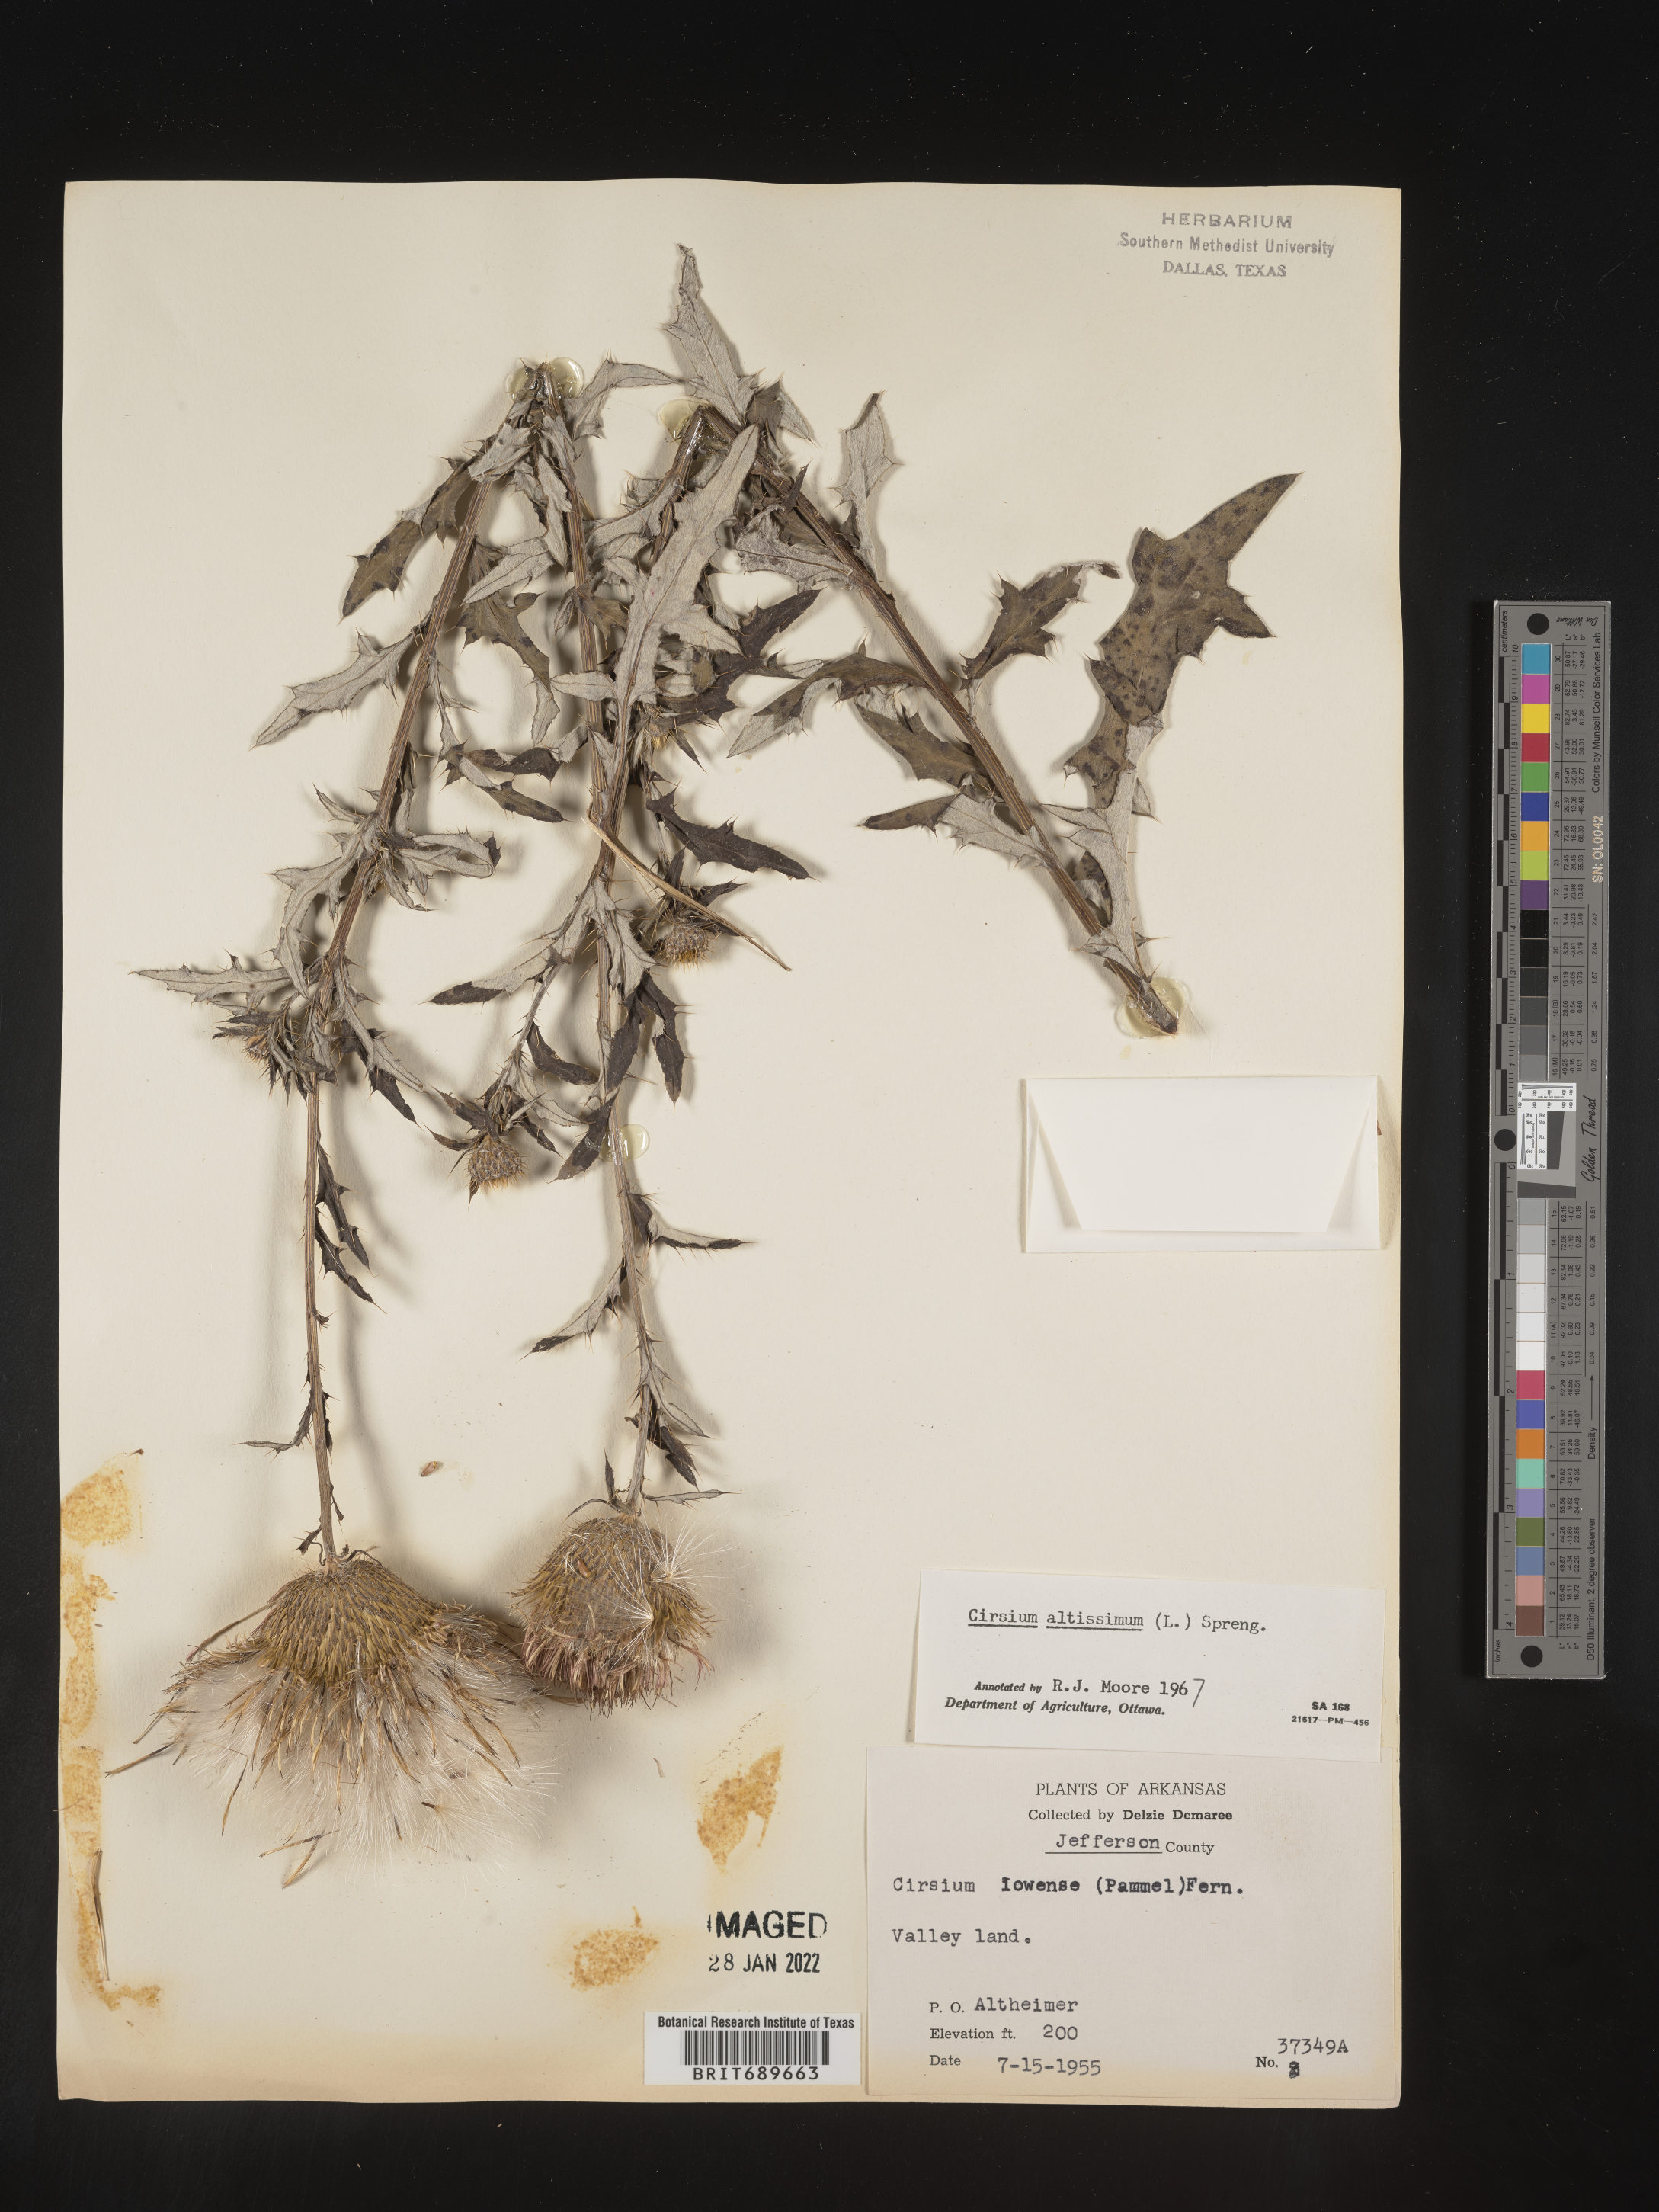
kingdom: Plantae
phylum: Tracheophyta
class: Magnoliopsida
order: Asterales
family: Asteraceae
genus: Cirsium
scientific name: Cirsium altissimum
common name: Roadside thistle
